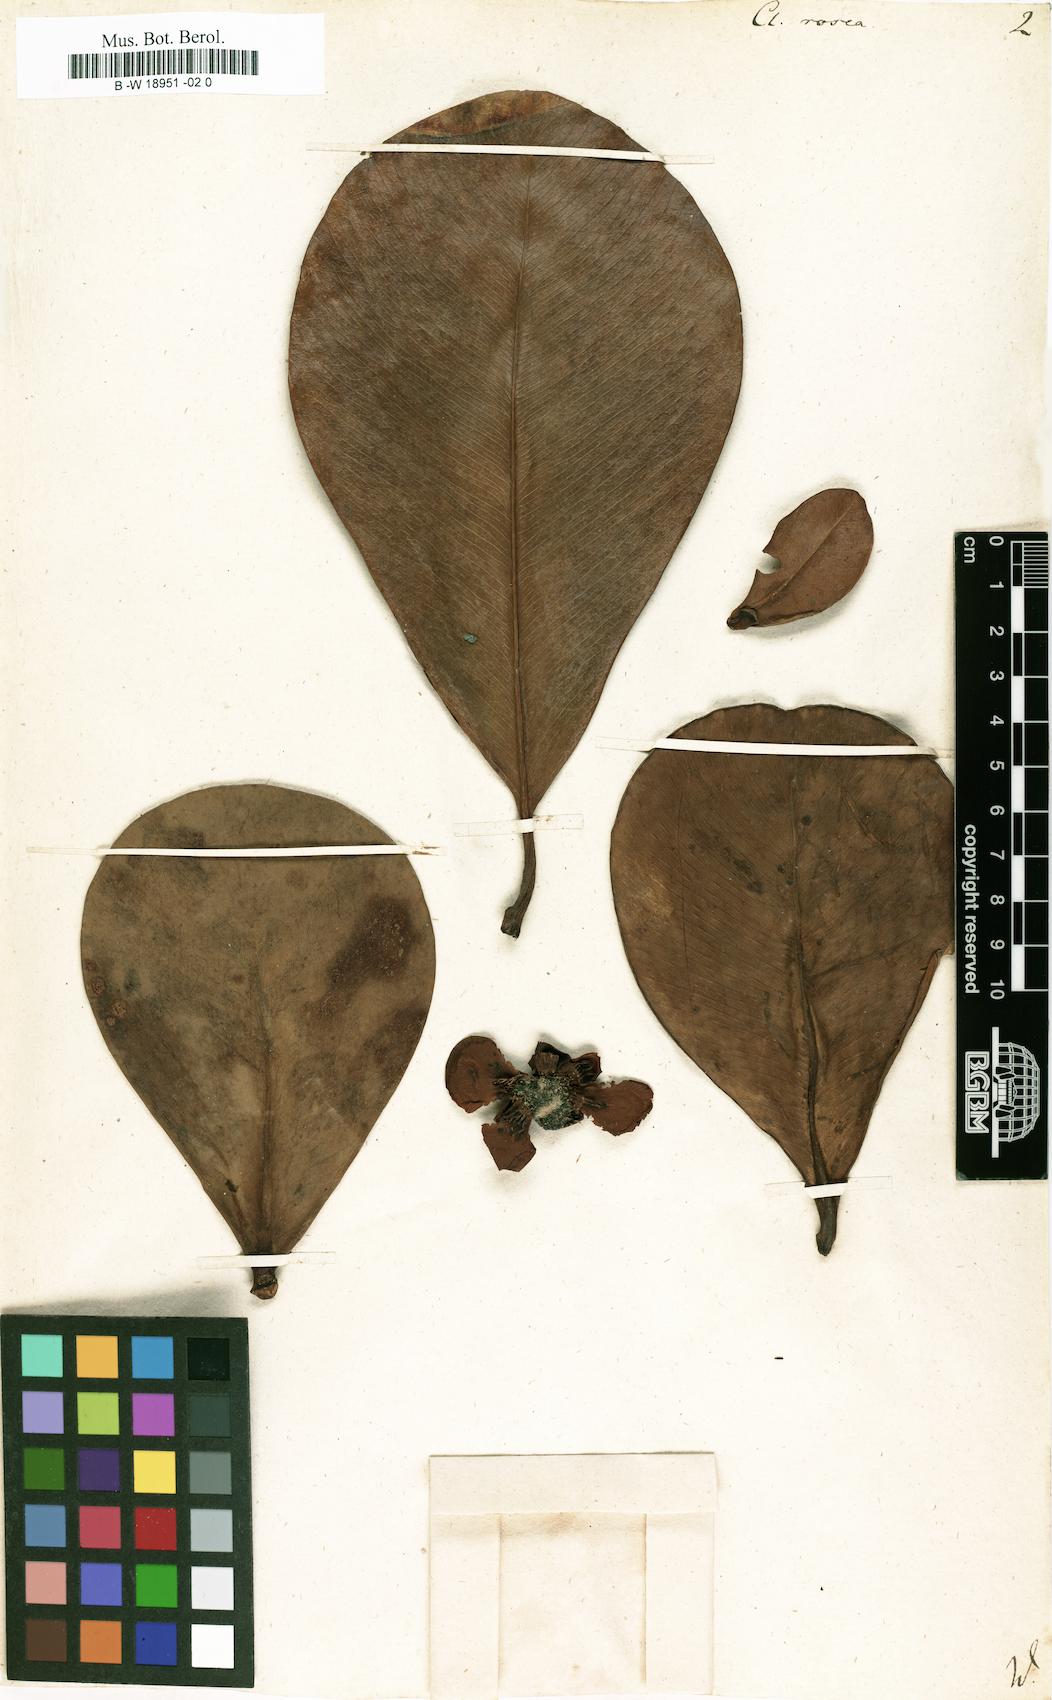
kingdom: Plantae
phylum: Tracheophyta
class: Magnoliopsida
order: Malpighiales
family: Clusiaceae
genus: Clusia
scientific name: Clusia rosea
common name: Scotch attorney
